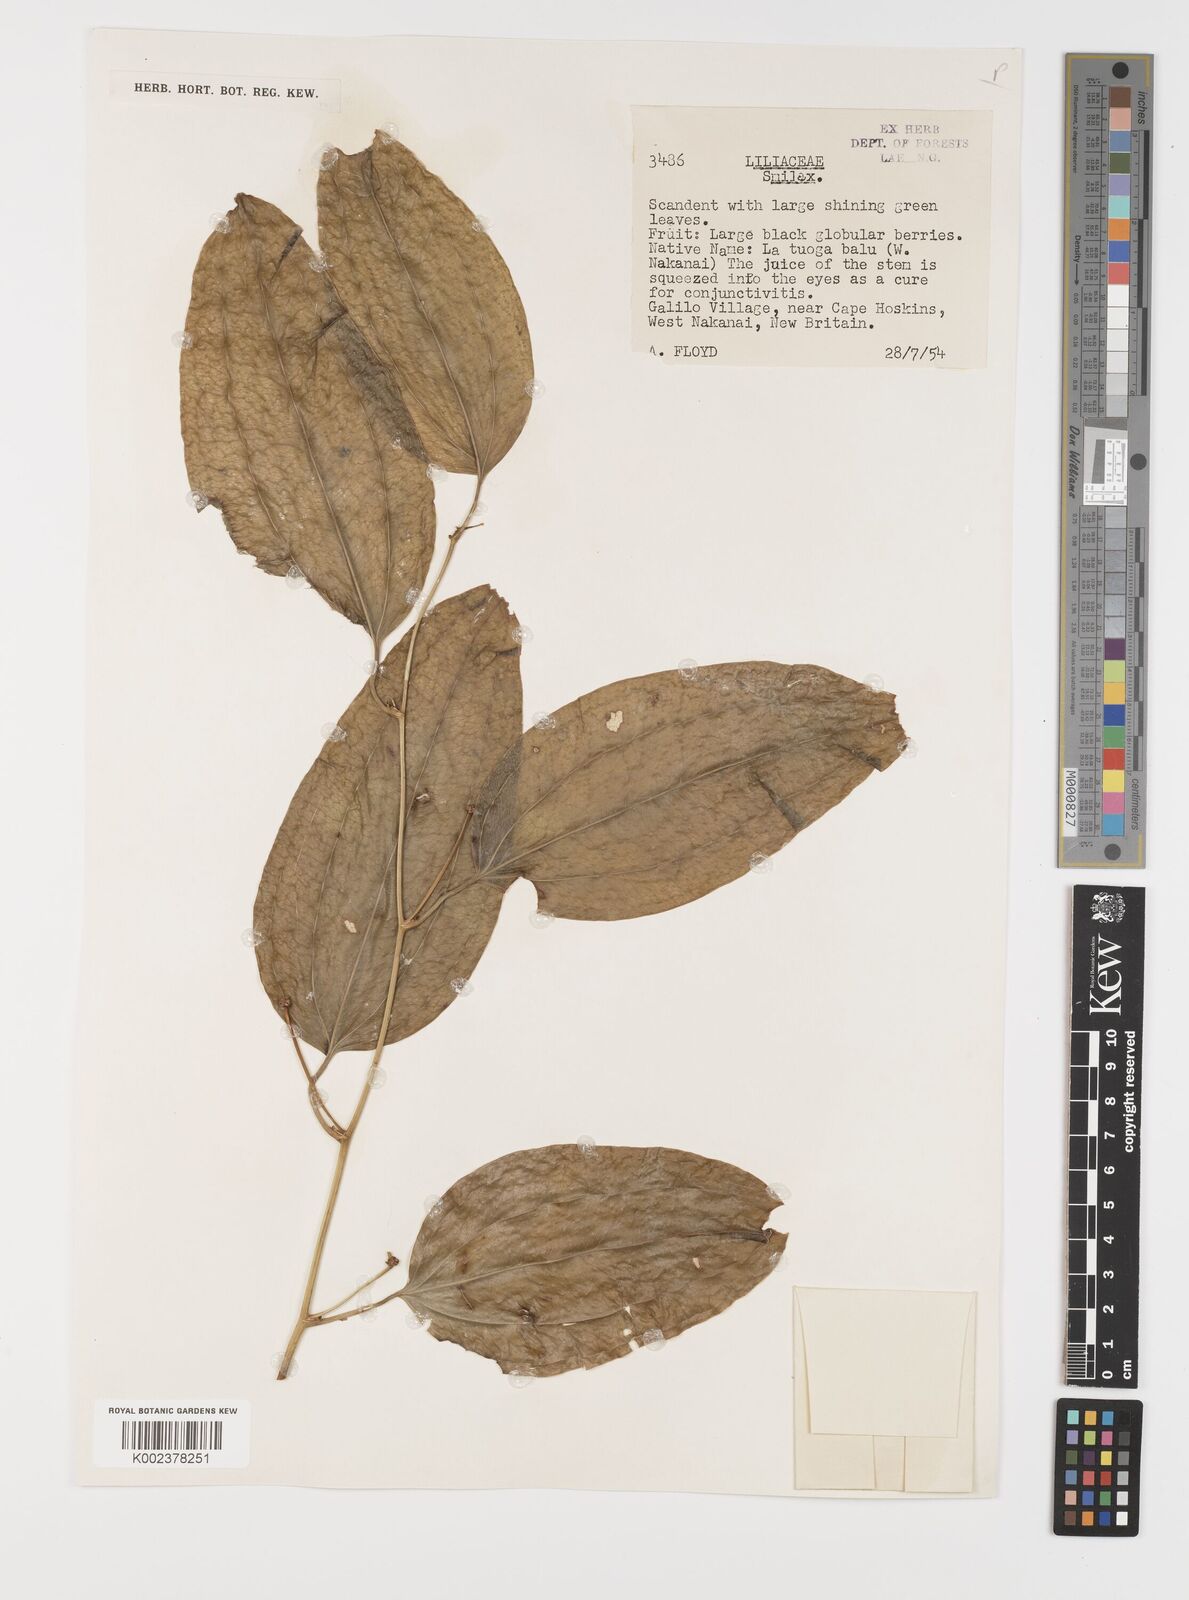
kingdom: Plantae
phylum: Tracheophyta
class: Liliopsida
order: Liliales
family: Smilacaceae
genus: Smilax
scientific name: Smilax
